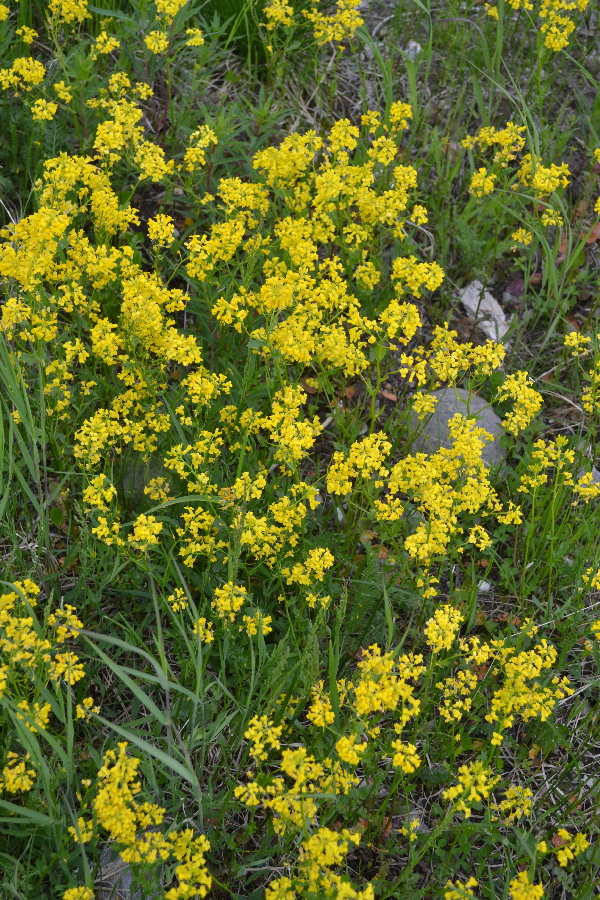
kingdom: Plantae
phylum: Tracheophyta
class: Magnoliopsida
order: Brassicales
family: Brassicaceae
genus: Erysimum
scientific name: Erysimum hieraciifolium
